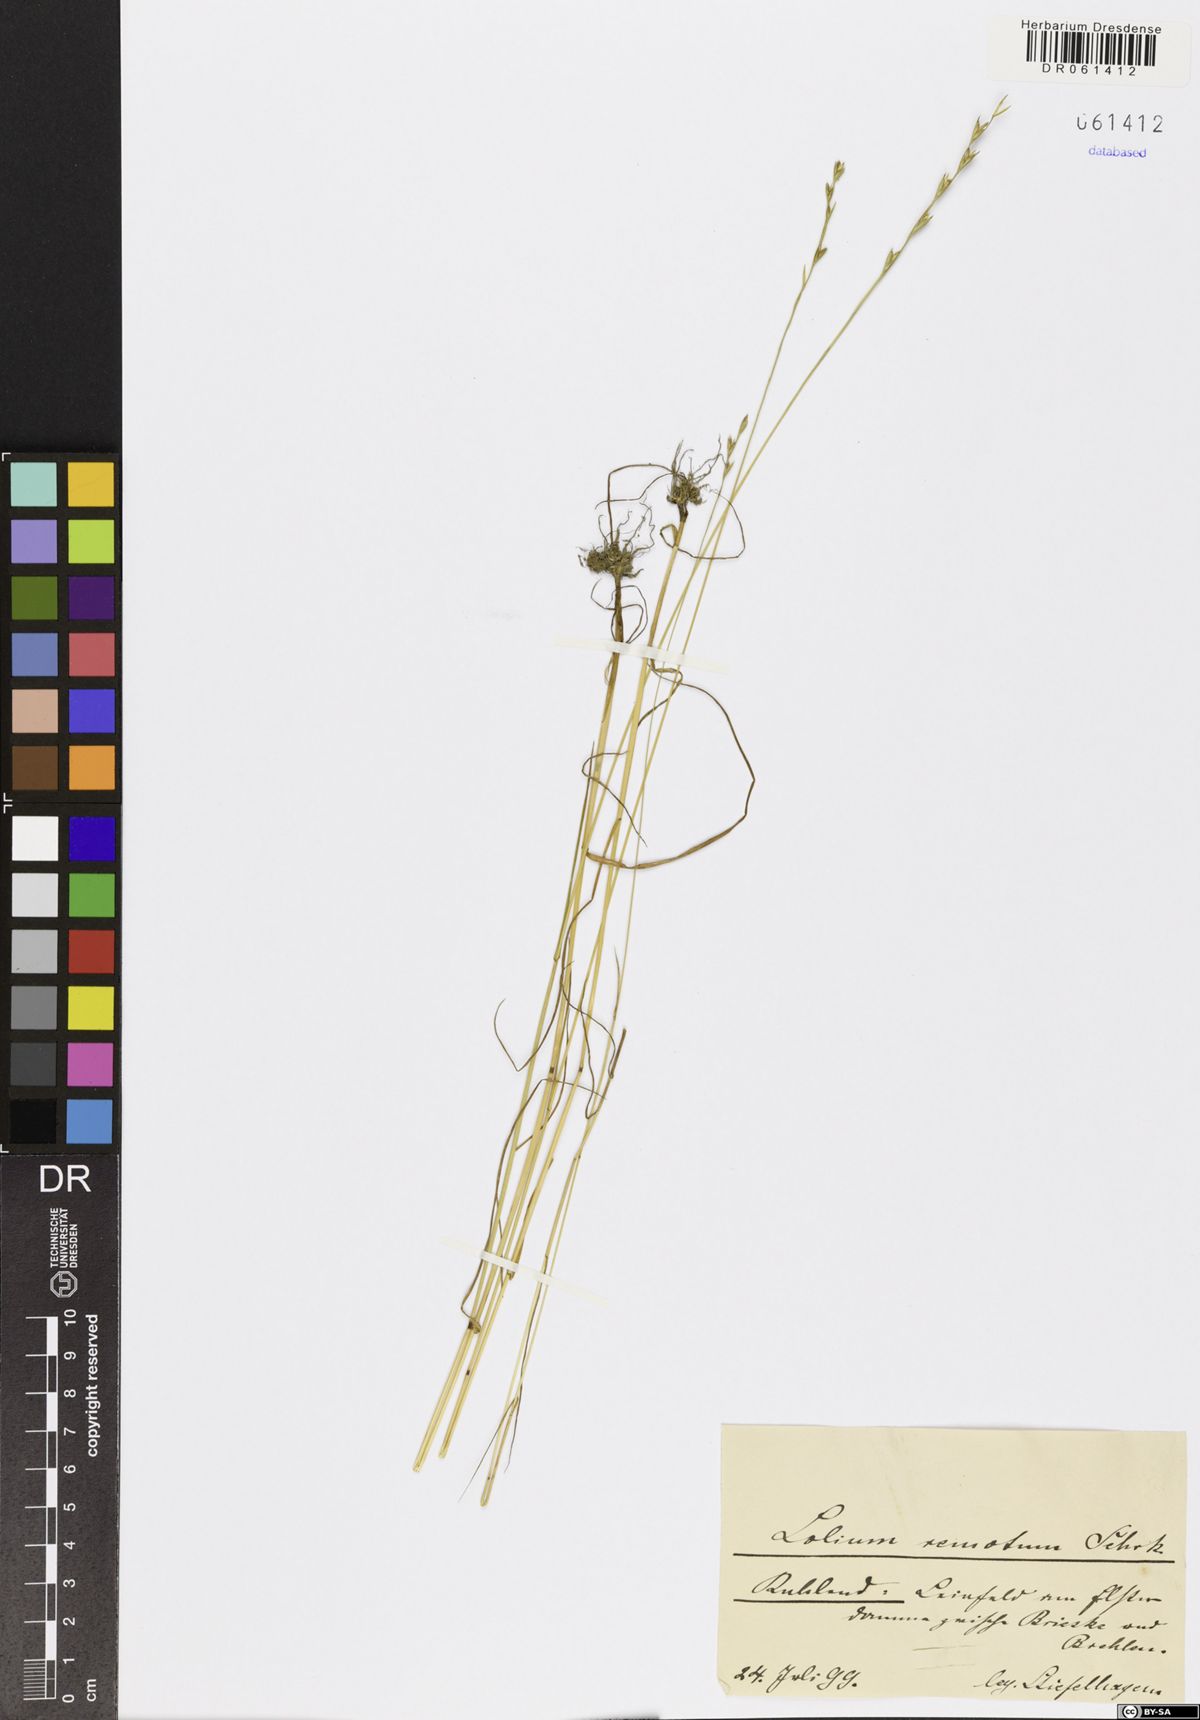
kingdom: Plantae
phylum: Tracheophyta
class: Liliopsida
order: Poales
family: Poaceae
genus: Lolium
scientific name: Lolium remotum
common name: Flaxfield rye-grass
